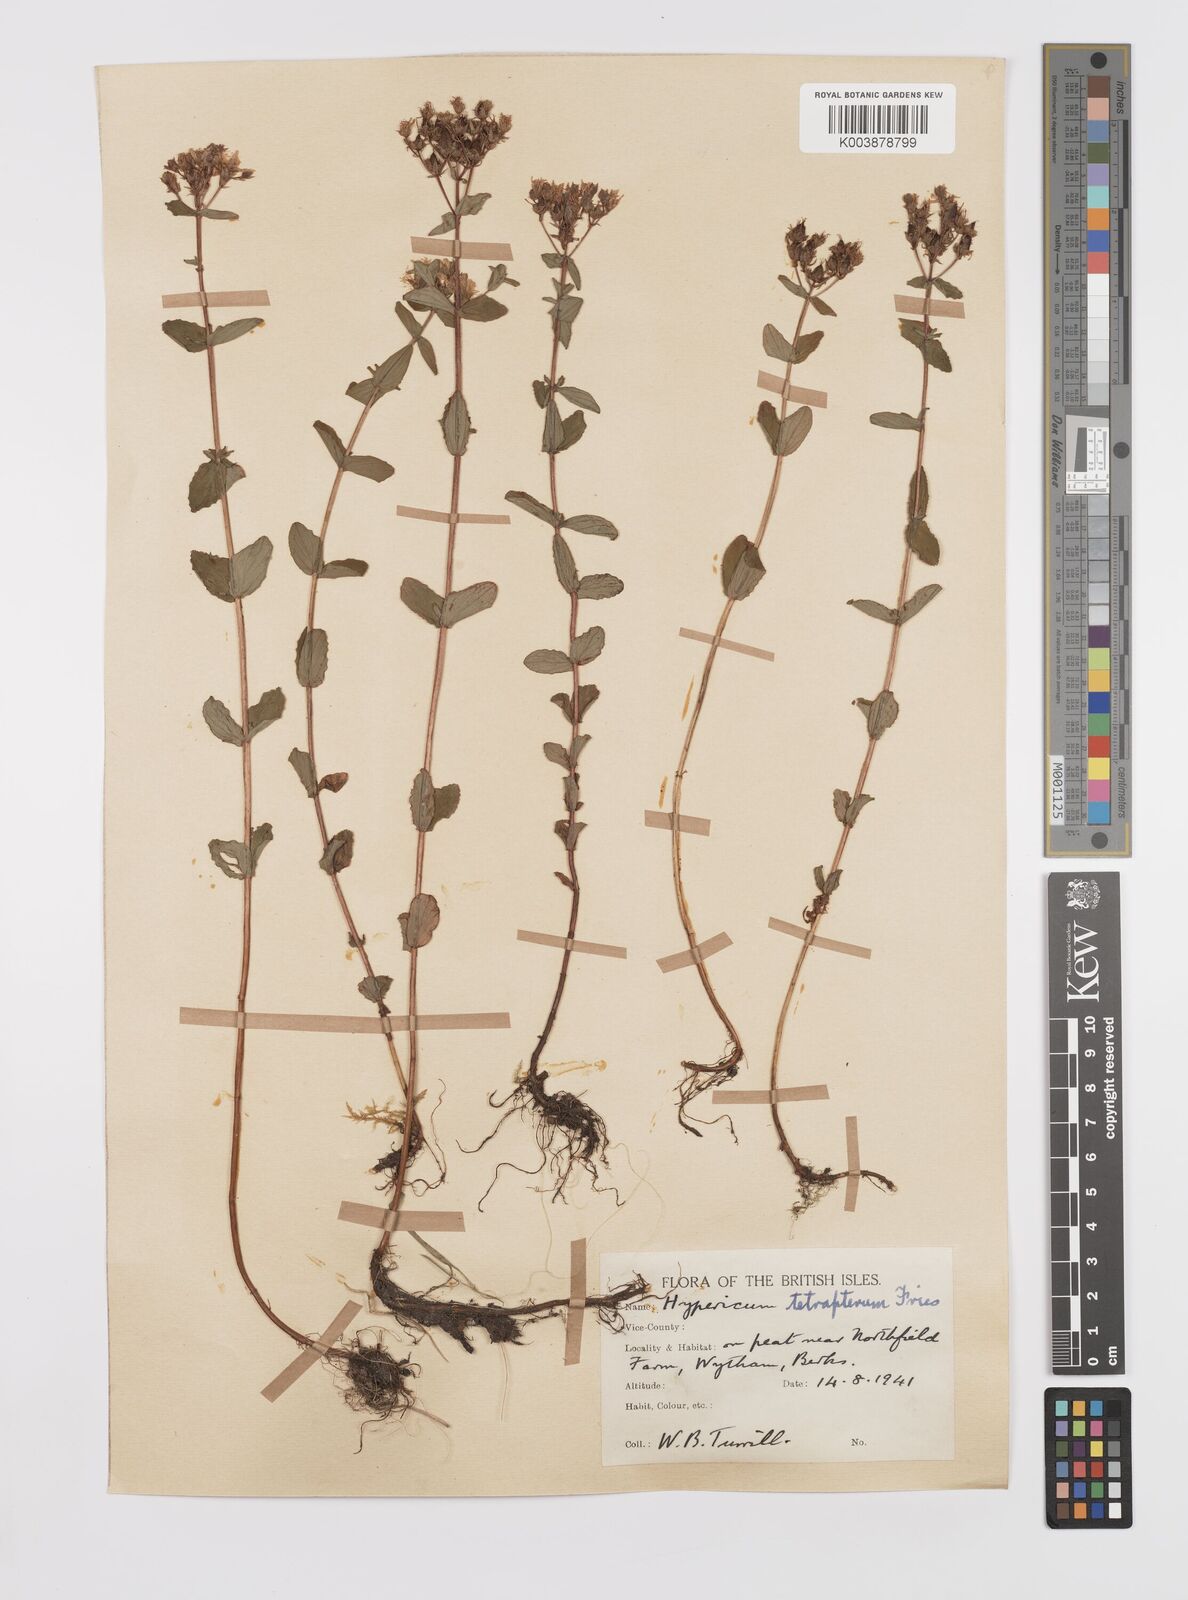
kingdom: Plantae
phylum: Tracheophyta
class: Magnoliopsida
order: Malpighiales
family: Hypericaceae
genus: Hypericum
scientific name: Hypericum tetrapterum
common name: Square-stalked st. john's-wort
